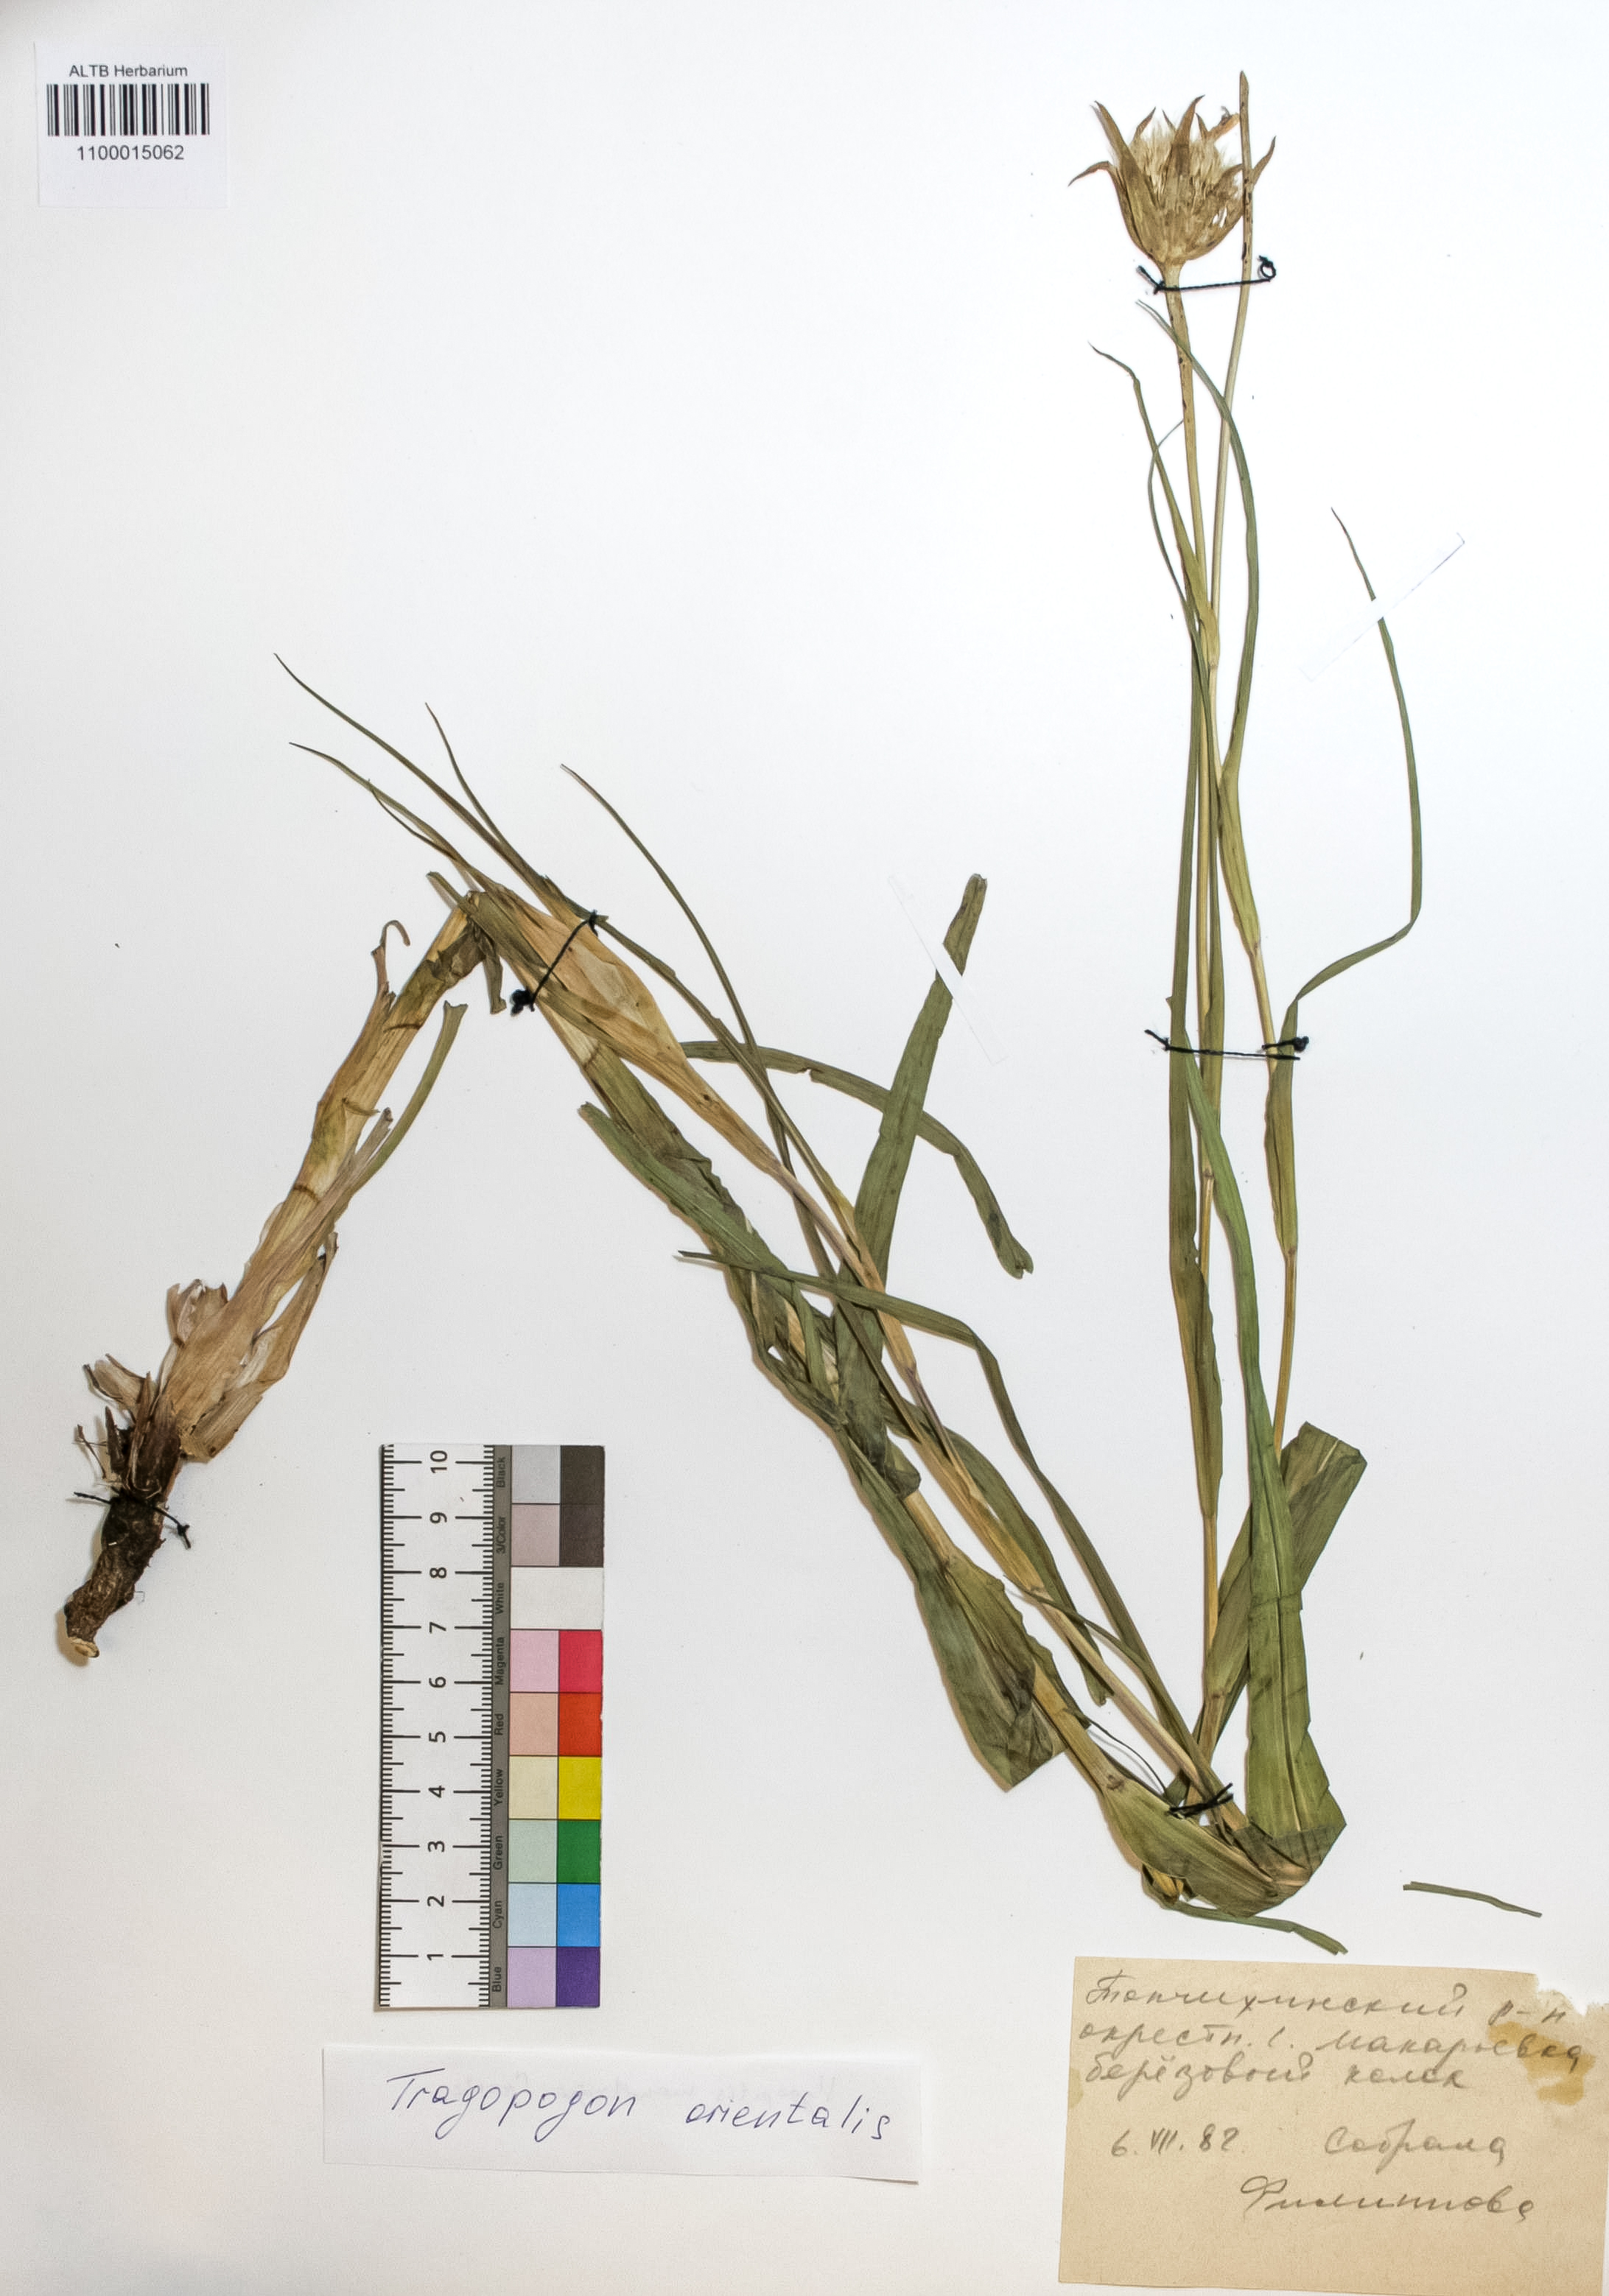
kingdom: Plantae
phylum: Tracheophyta
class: Magnoliopsida
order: Asterales
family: Asteraceae
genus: Tragopogon
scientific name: Tragopogon orientalis
